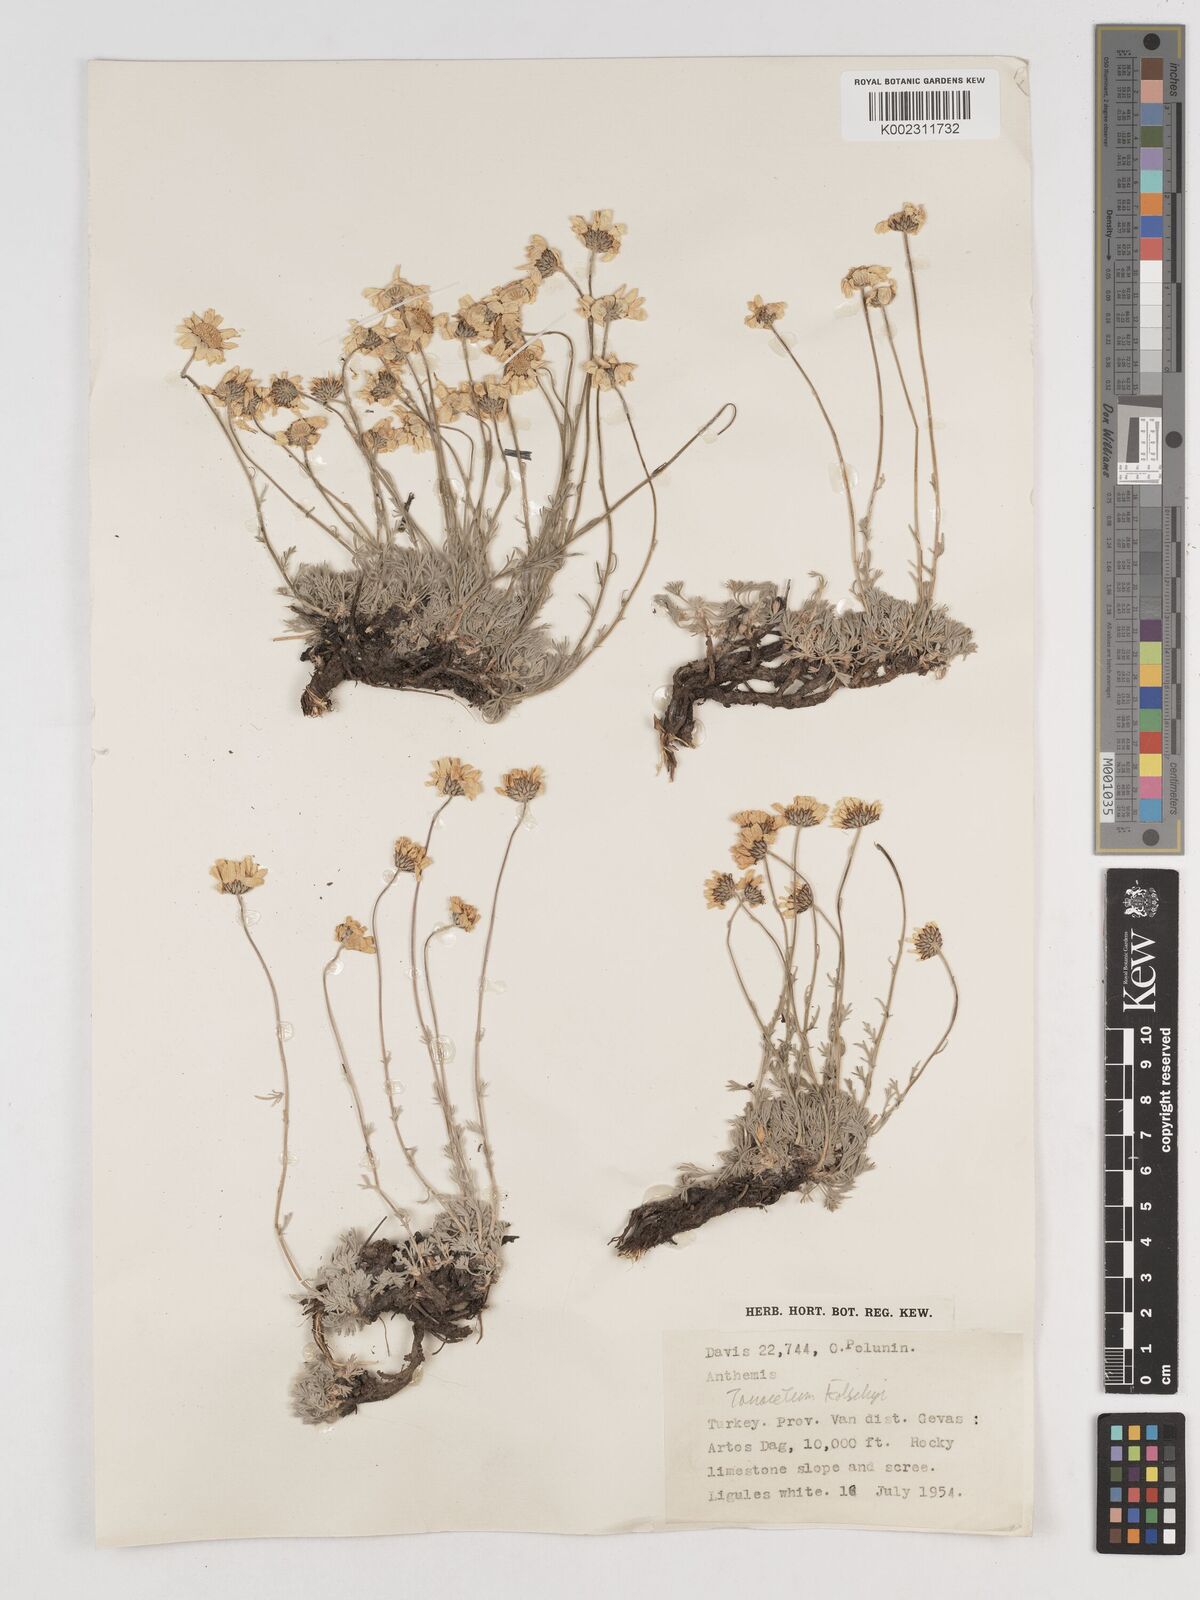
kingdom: Plantae
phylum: Tracheophyta
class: Magnoliopsida
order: Asterales
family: Asteraceae
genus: Tanacetum
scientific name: Tanacetum kotschyi
